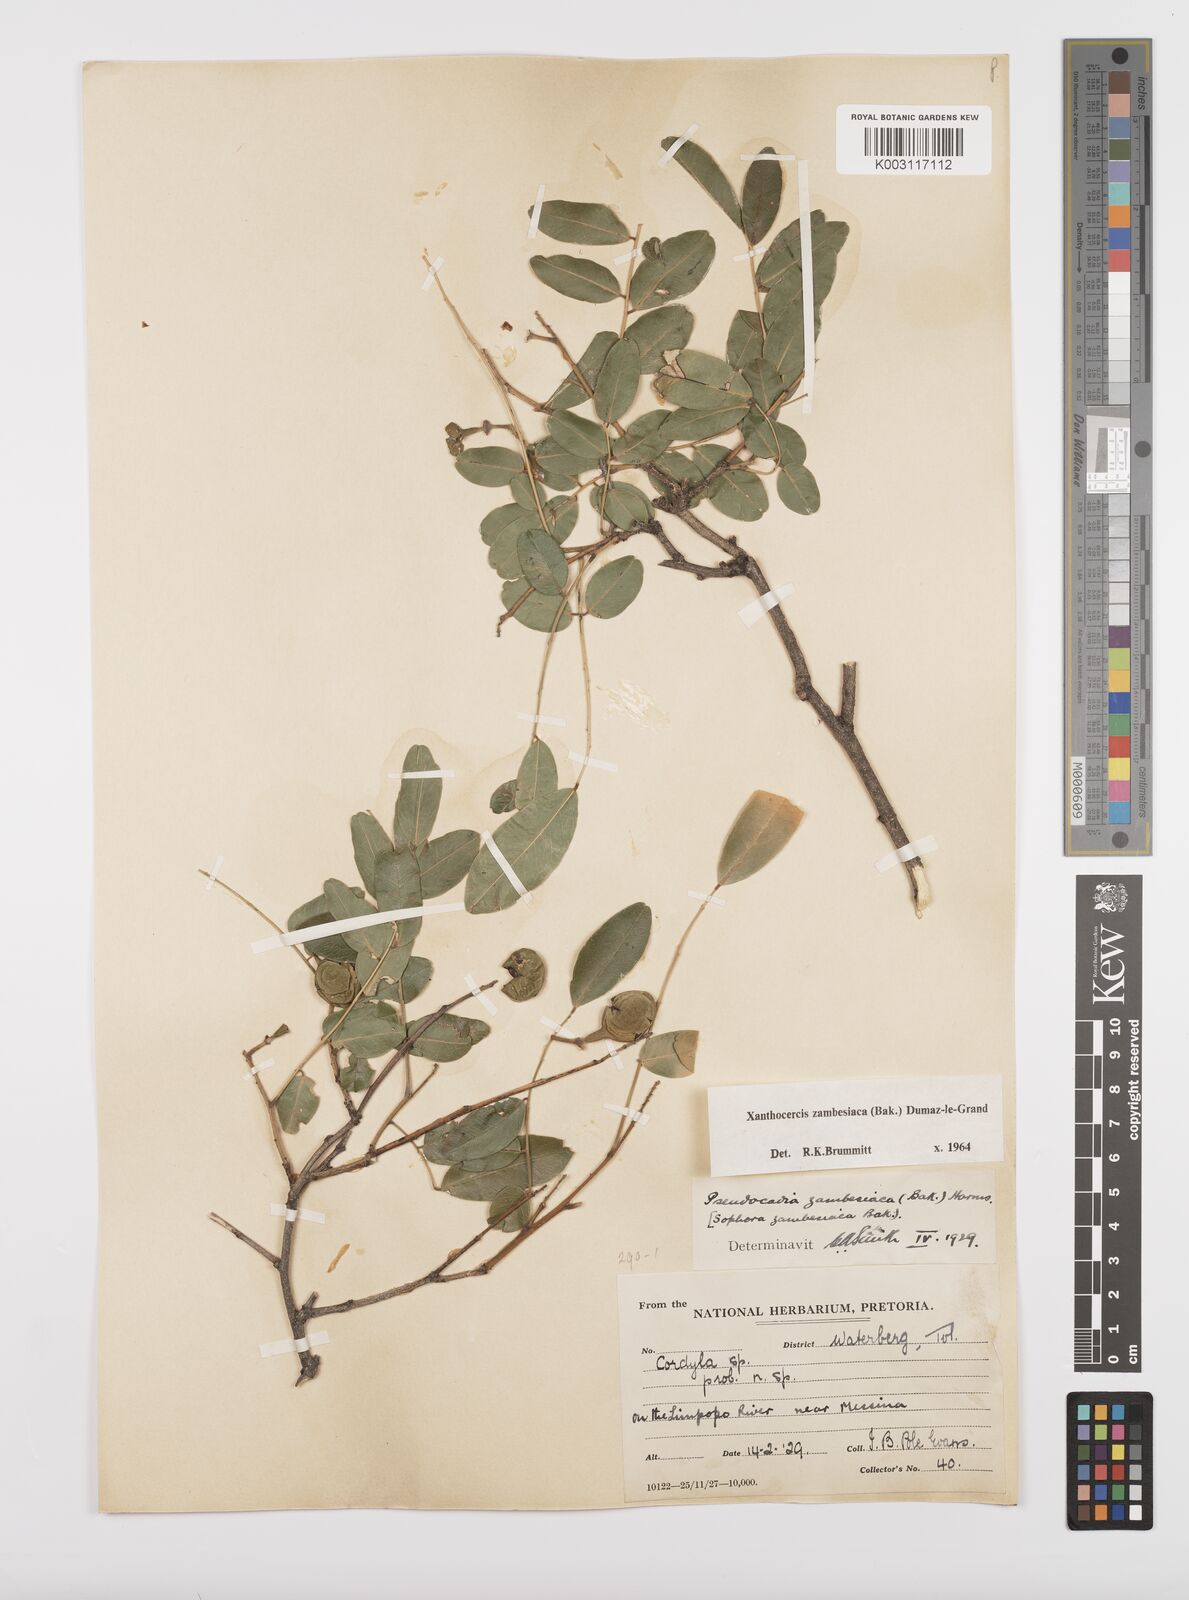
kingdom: Plantae
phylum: Tracheophyta
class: Magnoliopsida
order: Fabales
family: Fabaceae
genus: Xanthocercis
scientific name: Xanthocercis zambesiaca
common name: Nyala-tree
